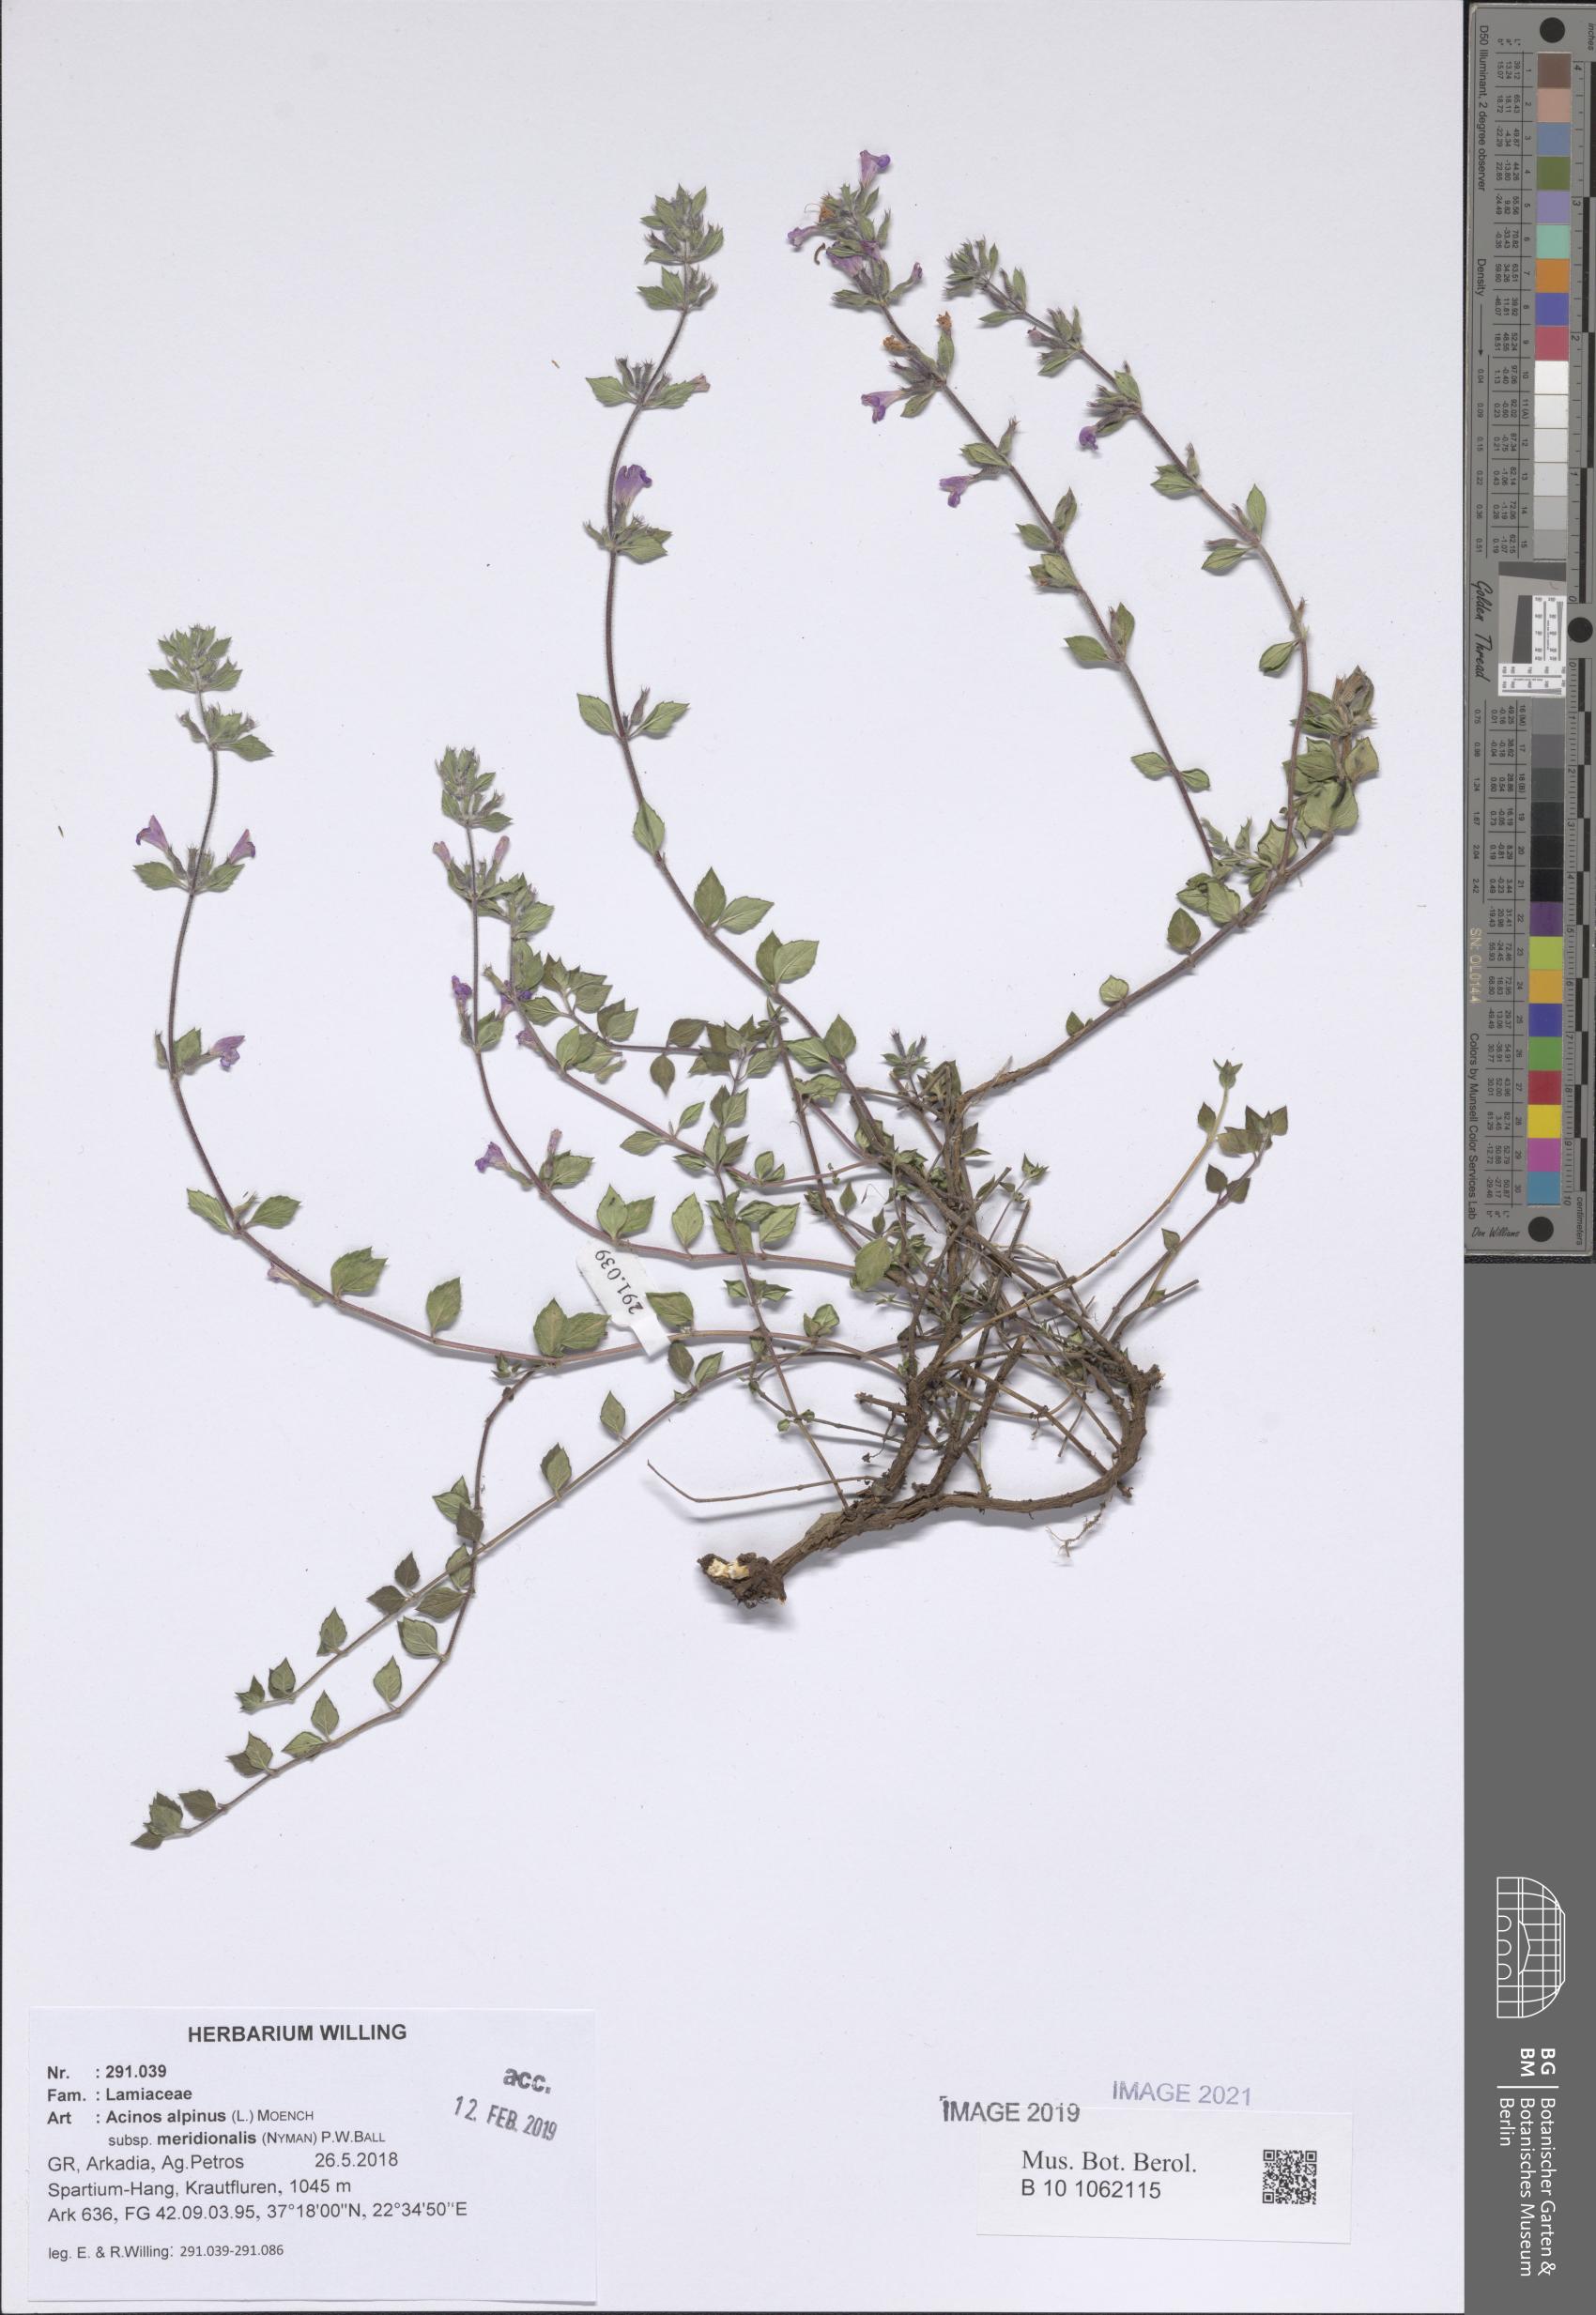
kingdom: Plantae
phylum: Tracheophyta
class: Magnoliopsida
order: Lamiales
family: Lamiaceae
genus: Clinopodium
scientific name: Clinopodium alpinum
